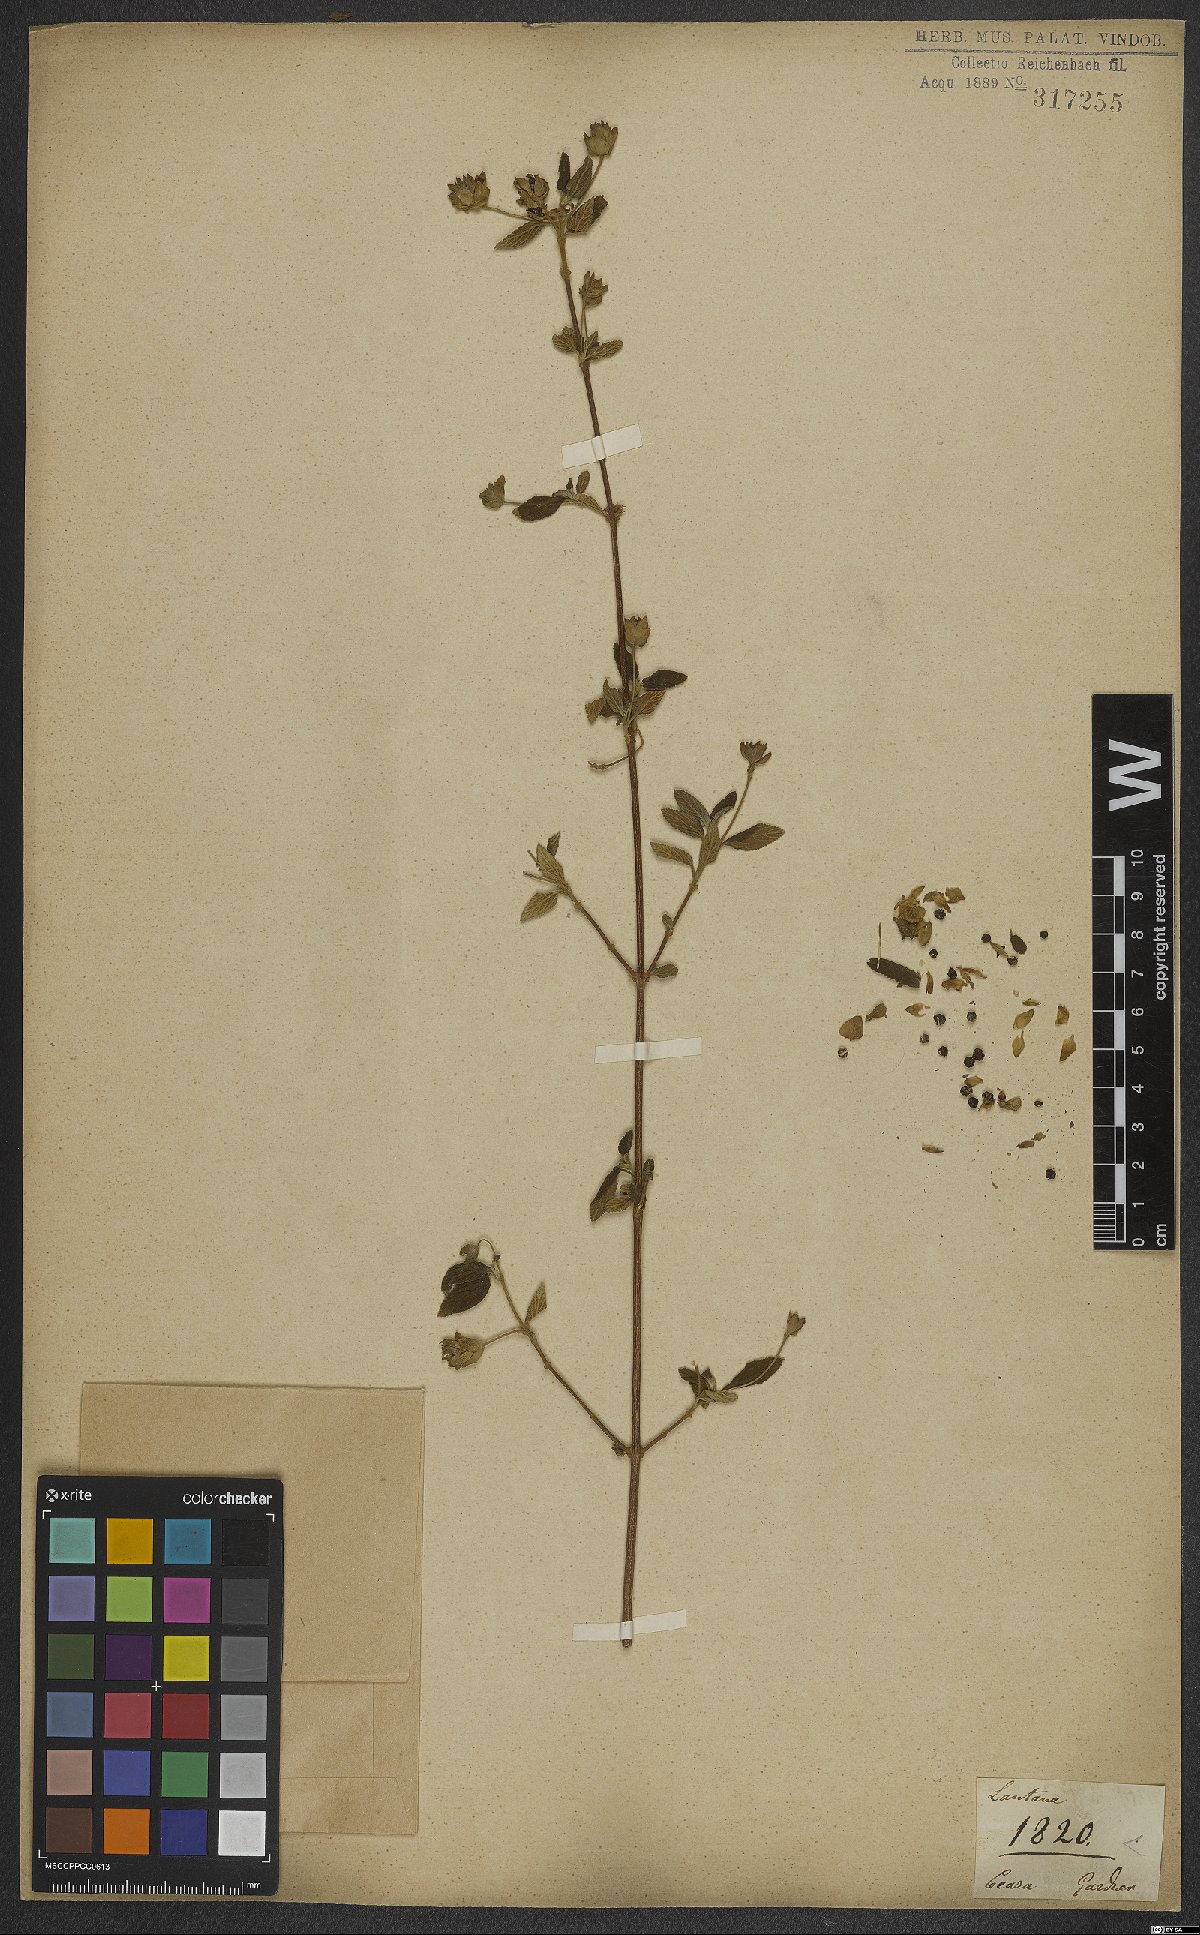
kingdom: Plantae
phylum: Tracheophyta
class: Magnoliopsida
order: Lamiales
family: Verbenaceae
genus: Lantana
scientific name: Lantana fucata
